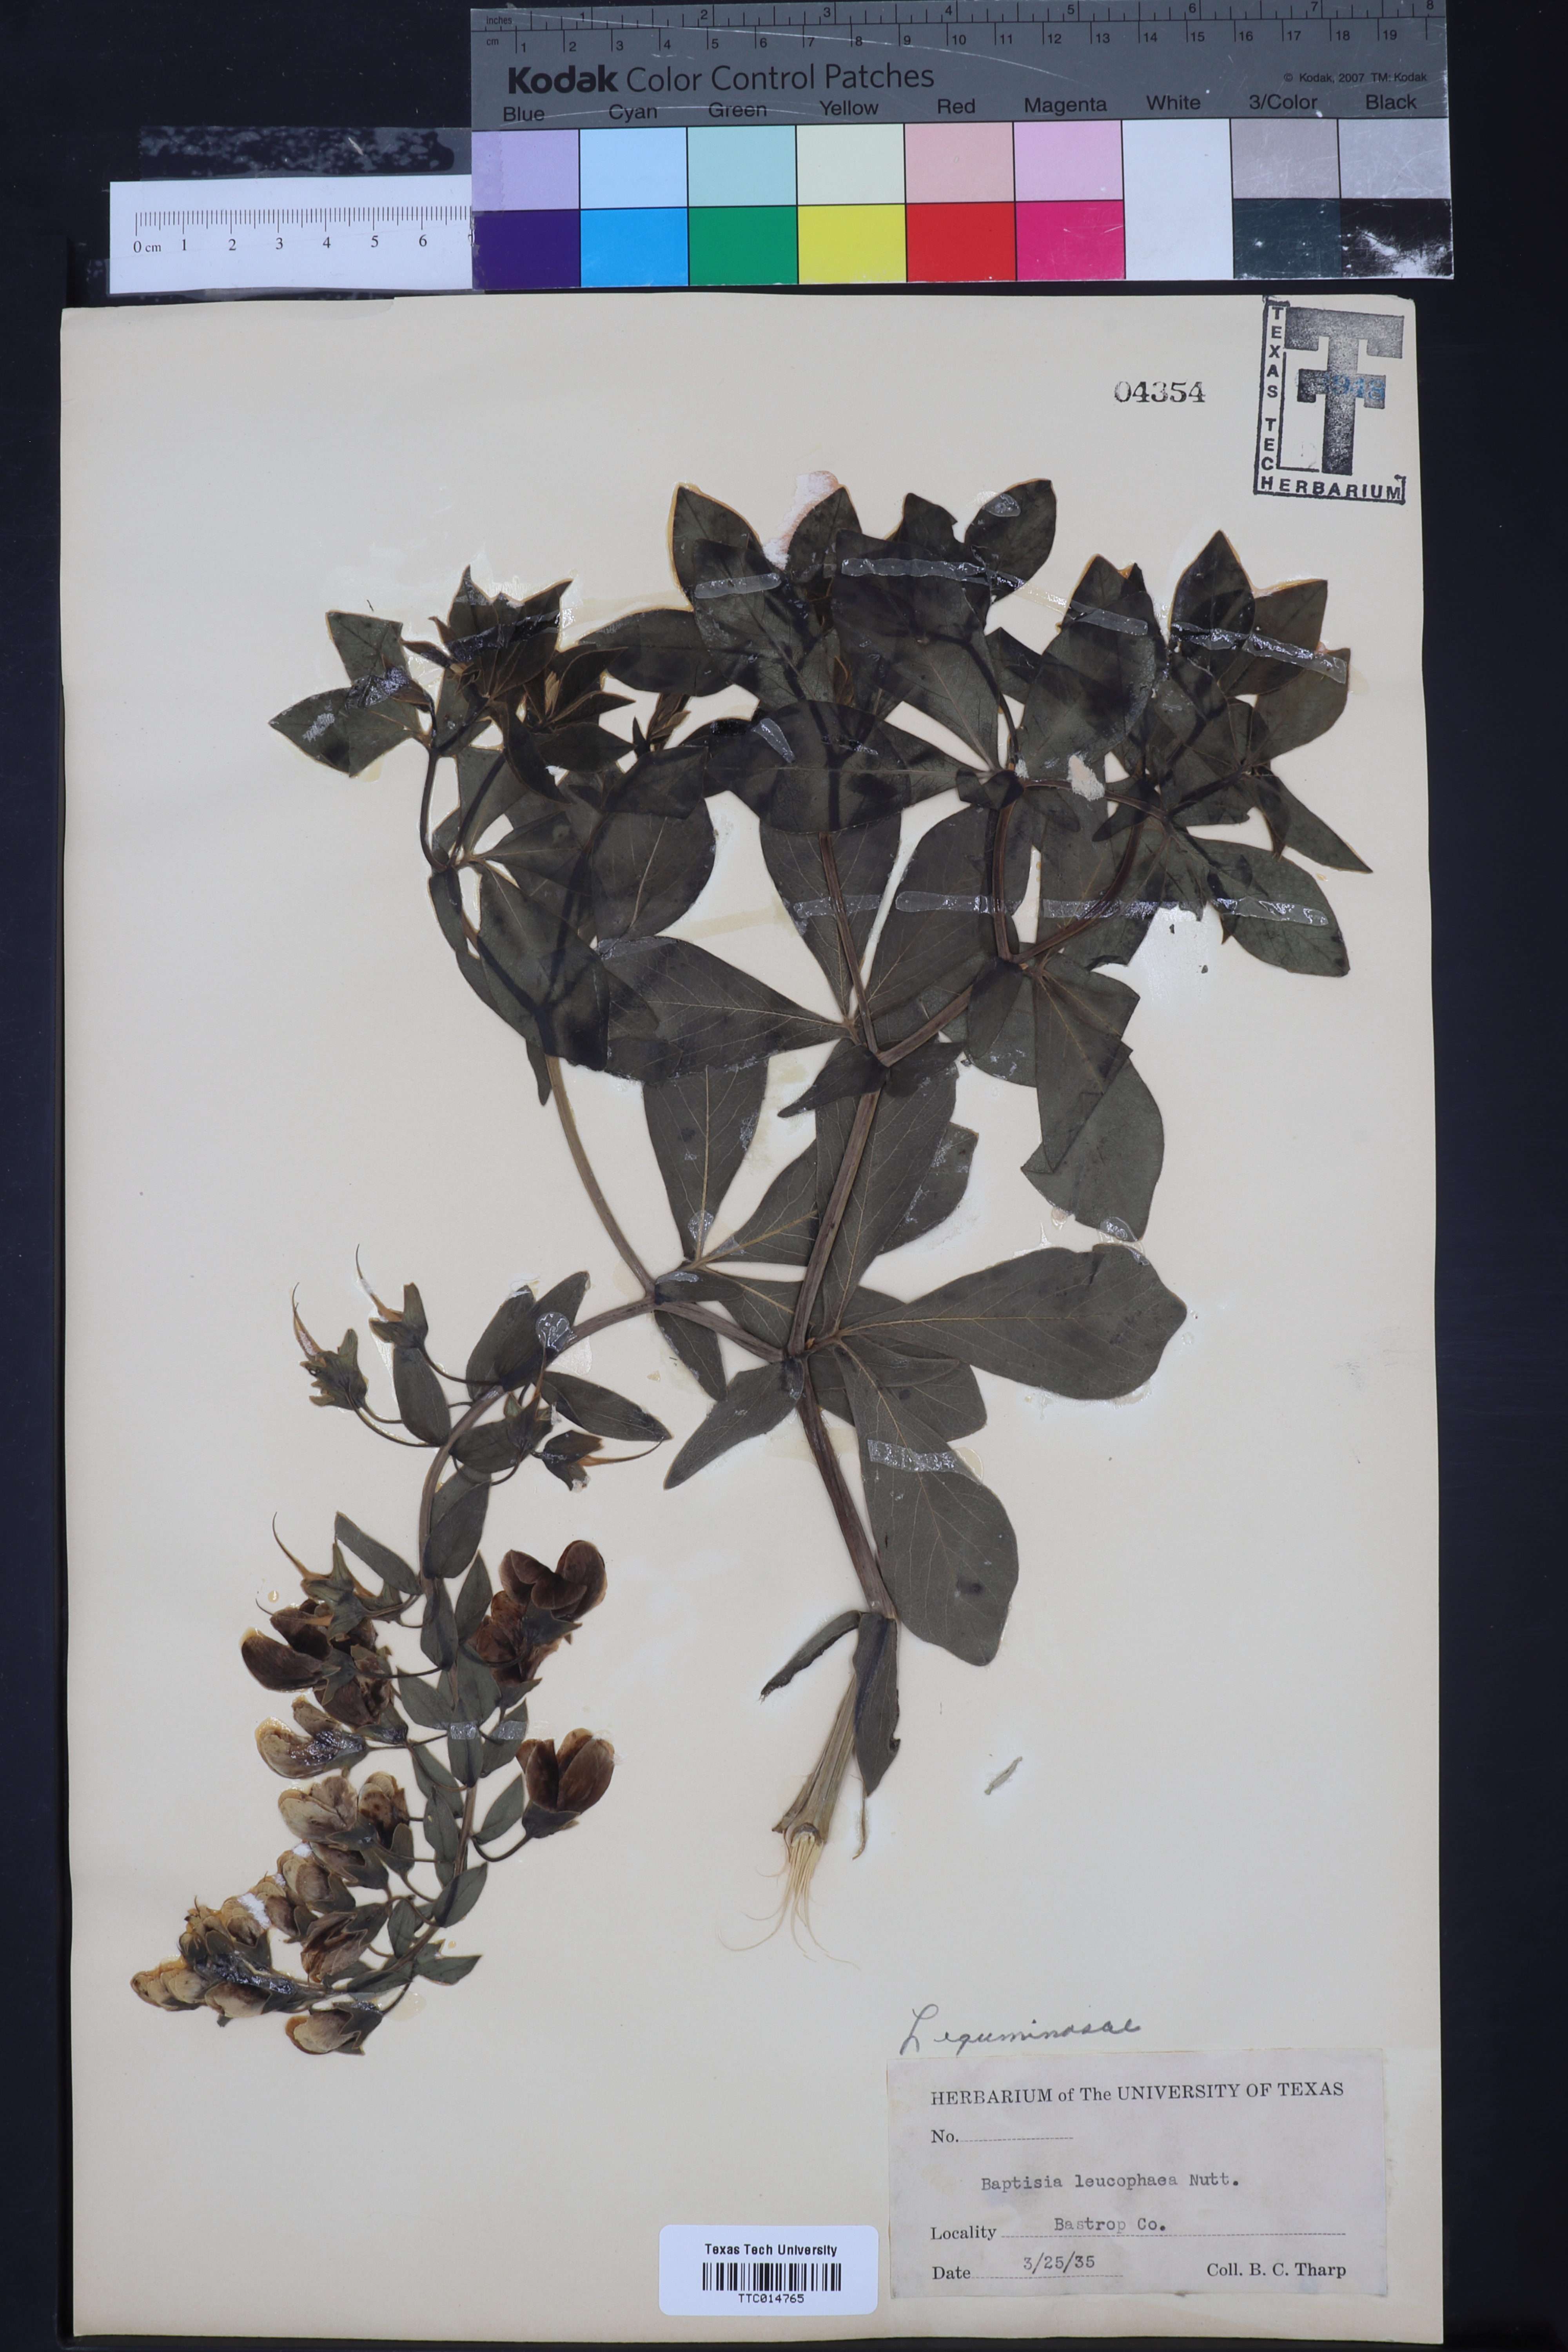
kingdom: Plantae
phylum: Tracheophyta
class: Magnoliopsida
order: Fabales
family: Fabaceae
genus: Baptisia
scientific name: Baptisia bracteata
